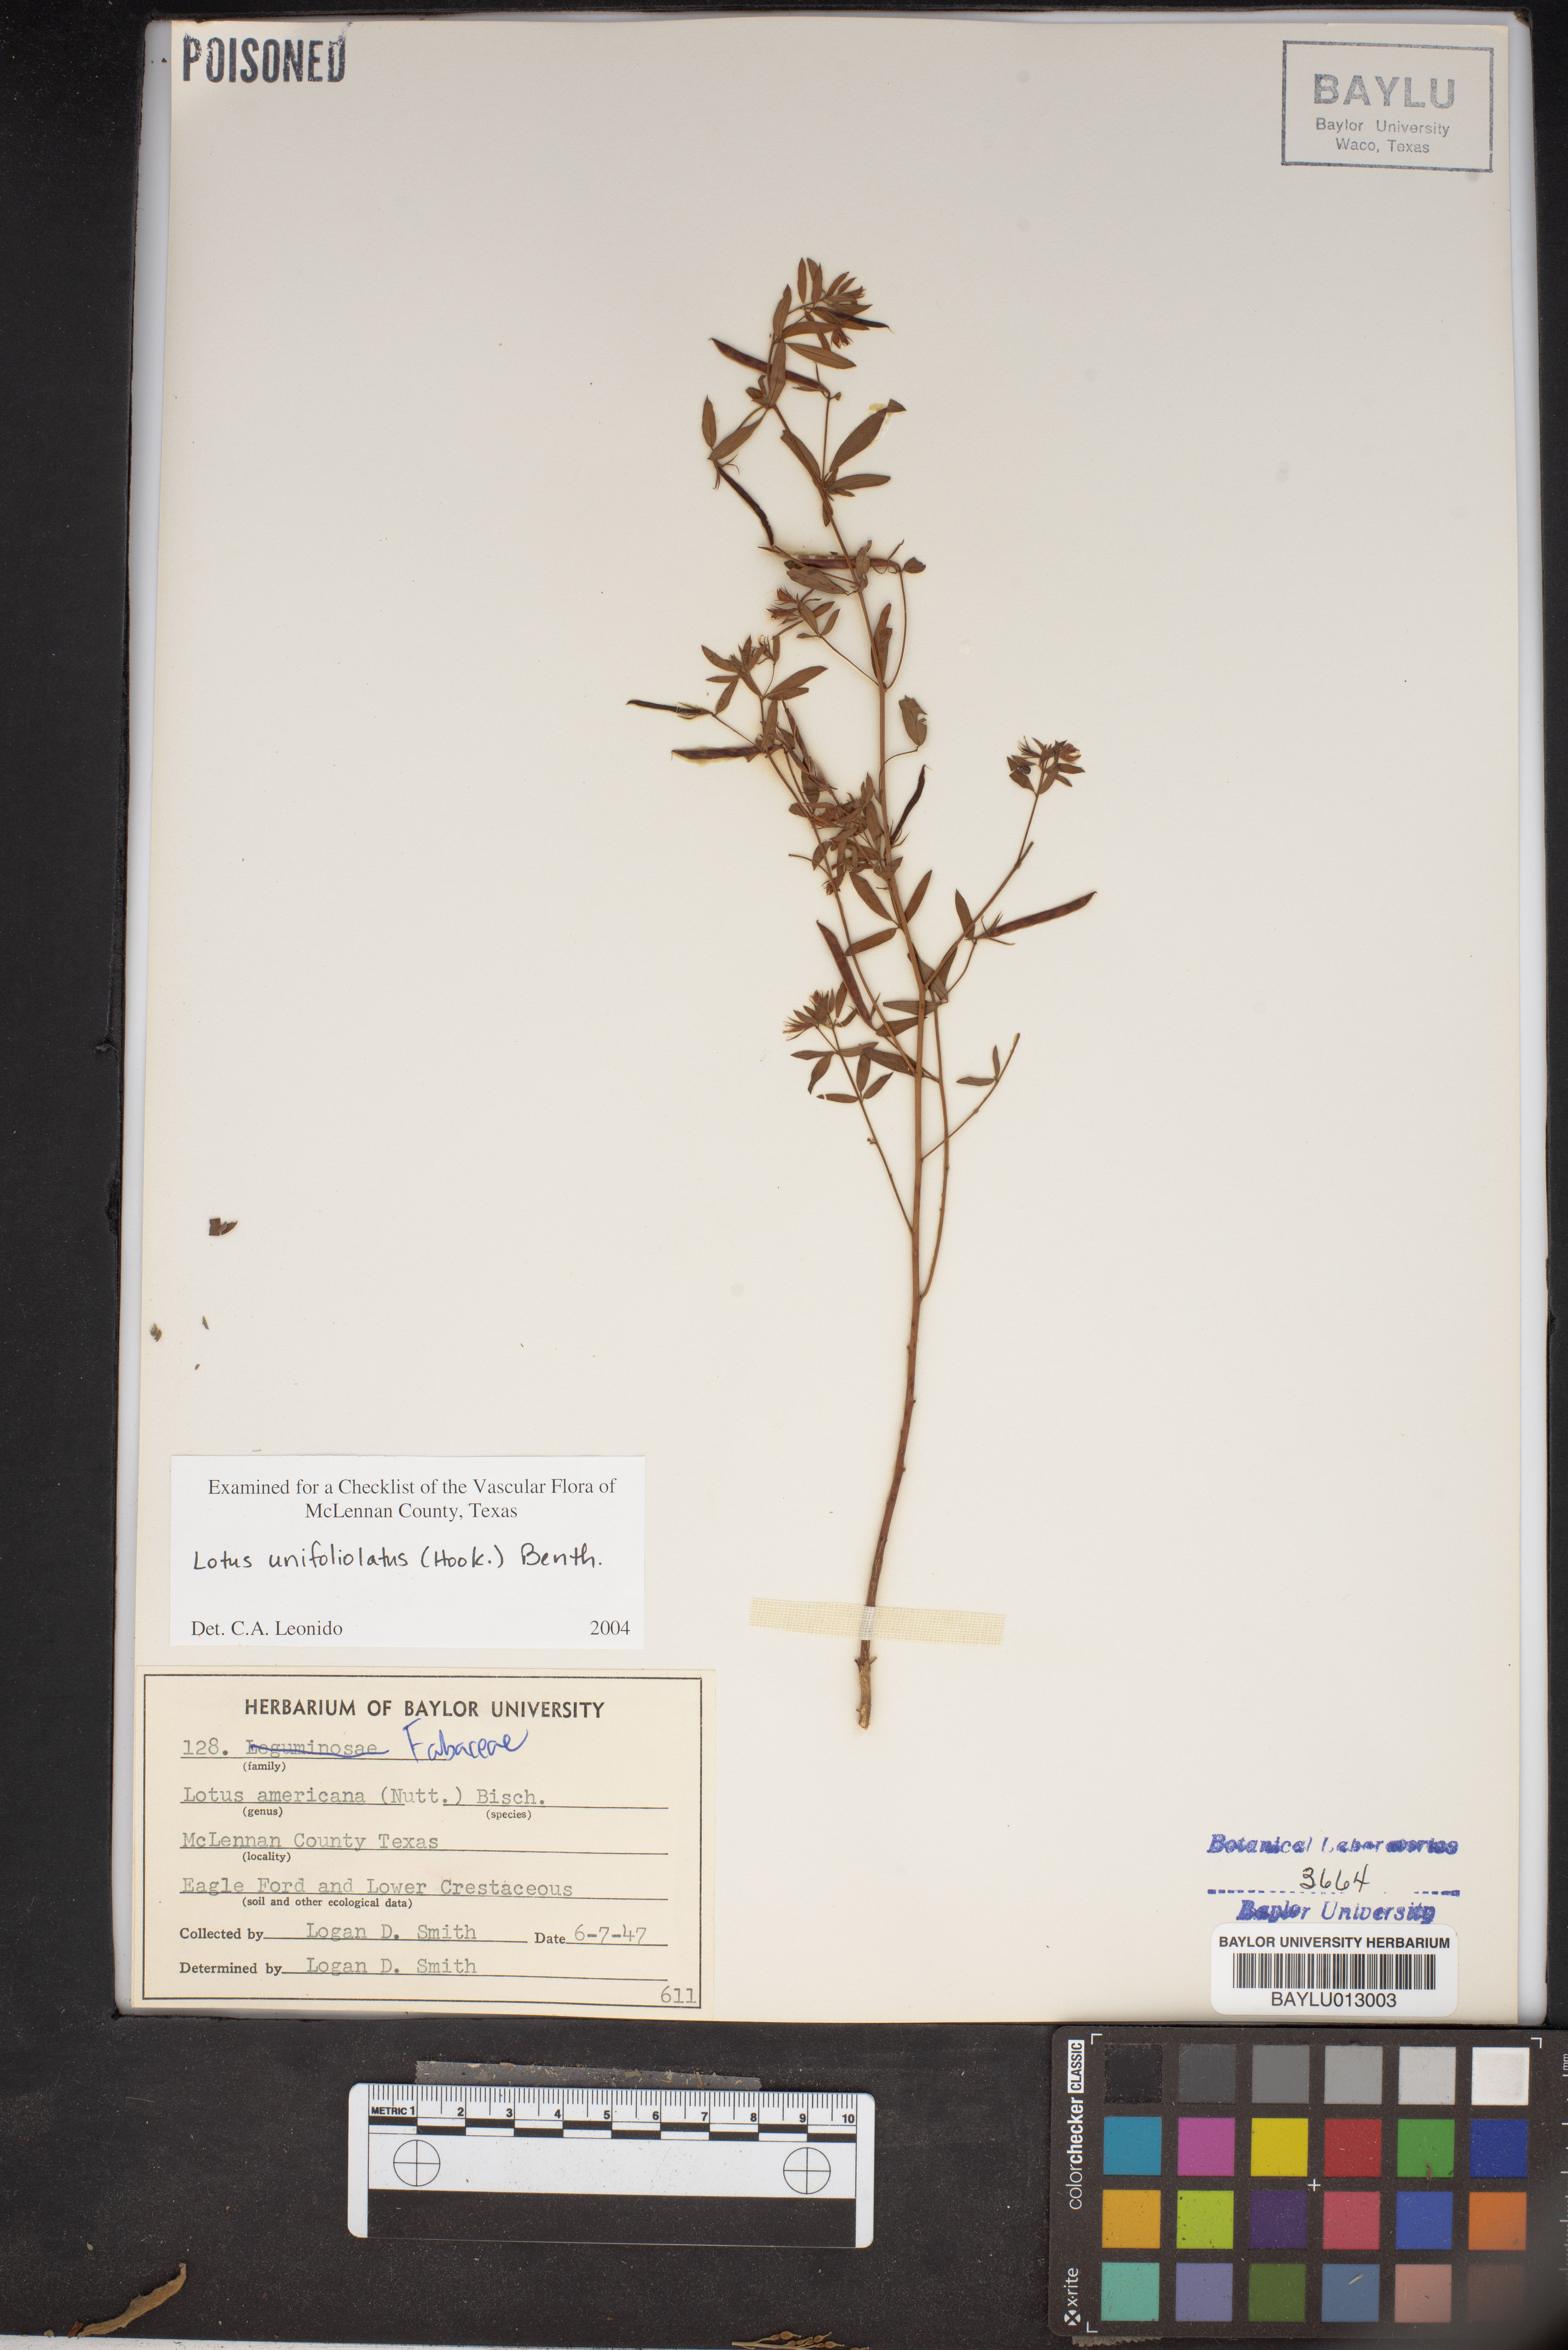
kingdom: Plantae
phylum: Tracheophyta
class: Magnoliopsida
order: Fabales
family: Fabaceae
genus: Acmispon
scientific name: Acmispon americanus
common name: American bird's-foot trefoil
